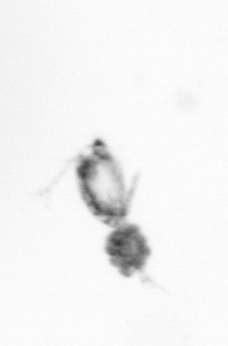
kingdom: Animalia
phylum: Arthropoda
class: Copepoda
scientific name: Copepoda
